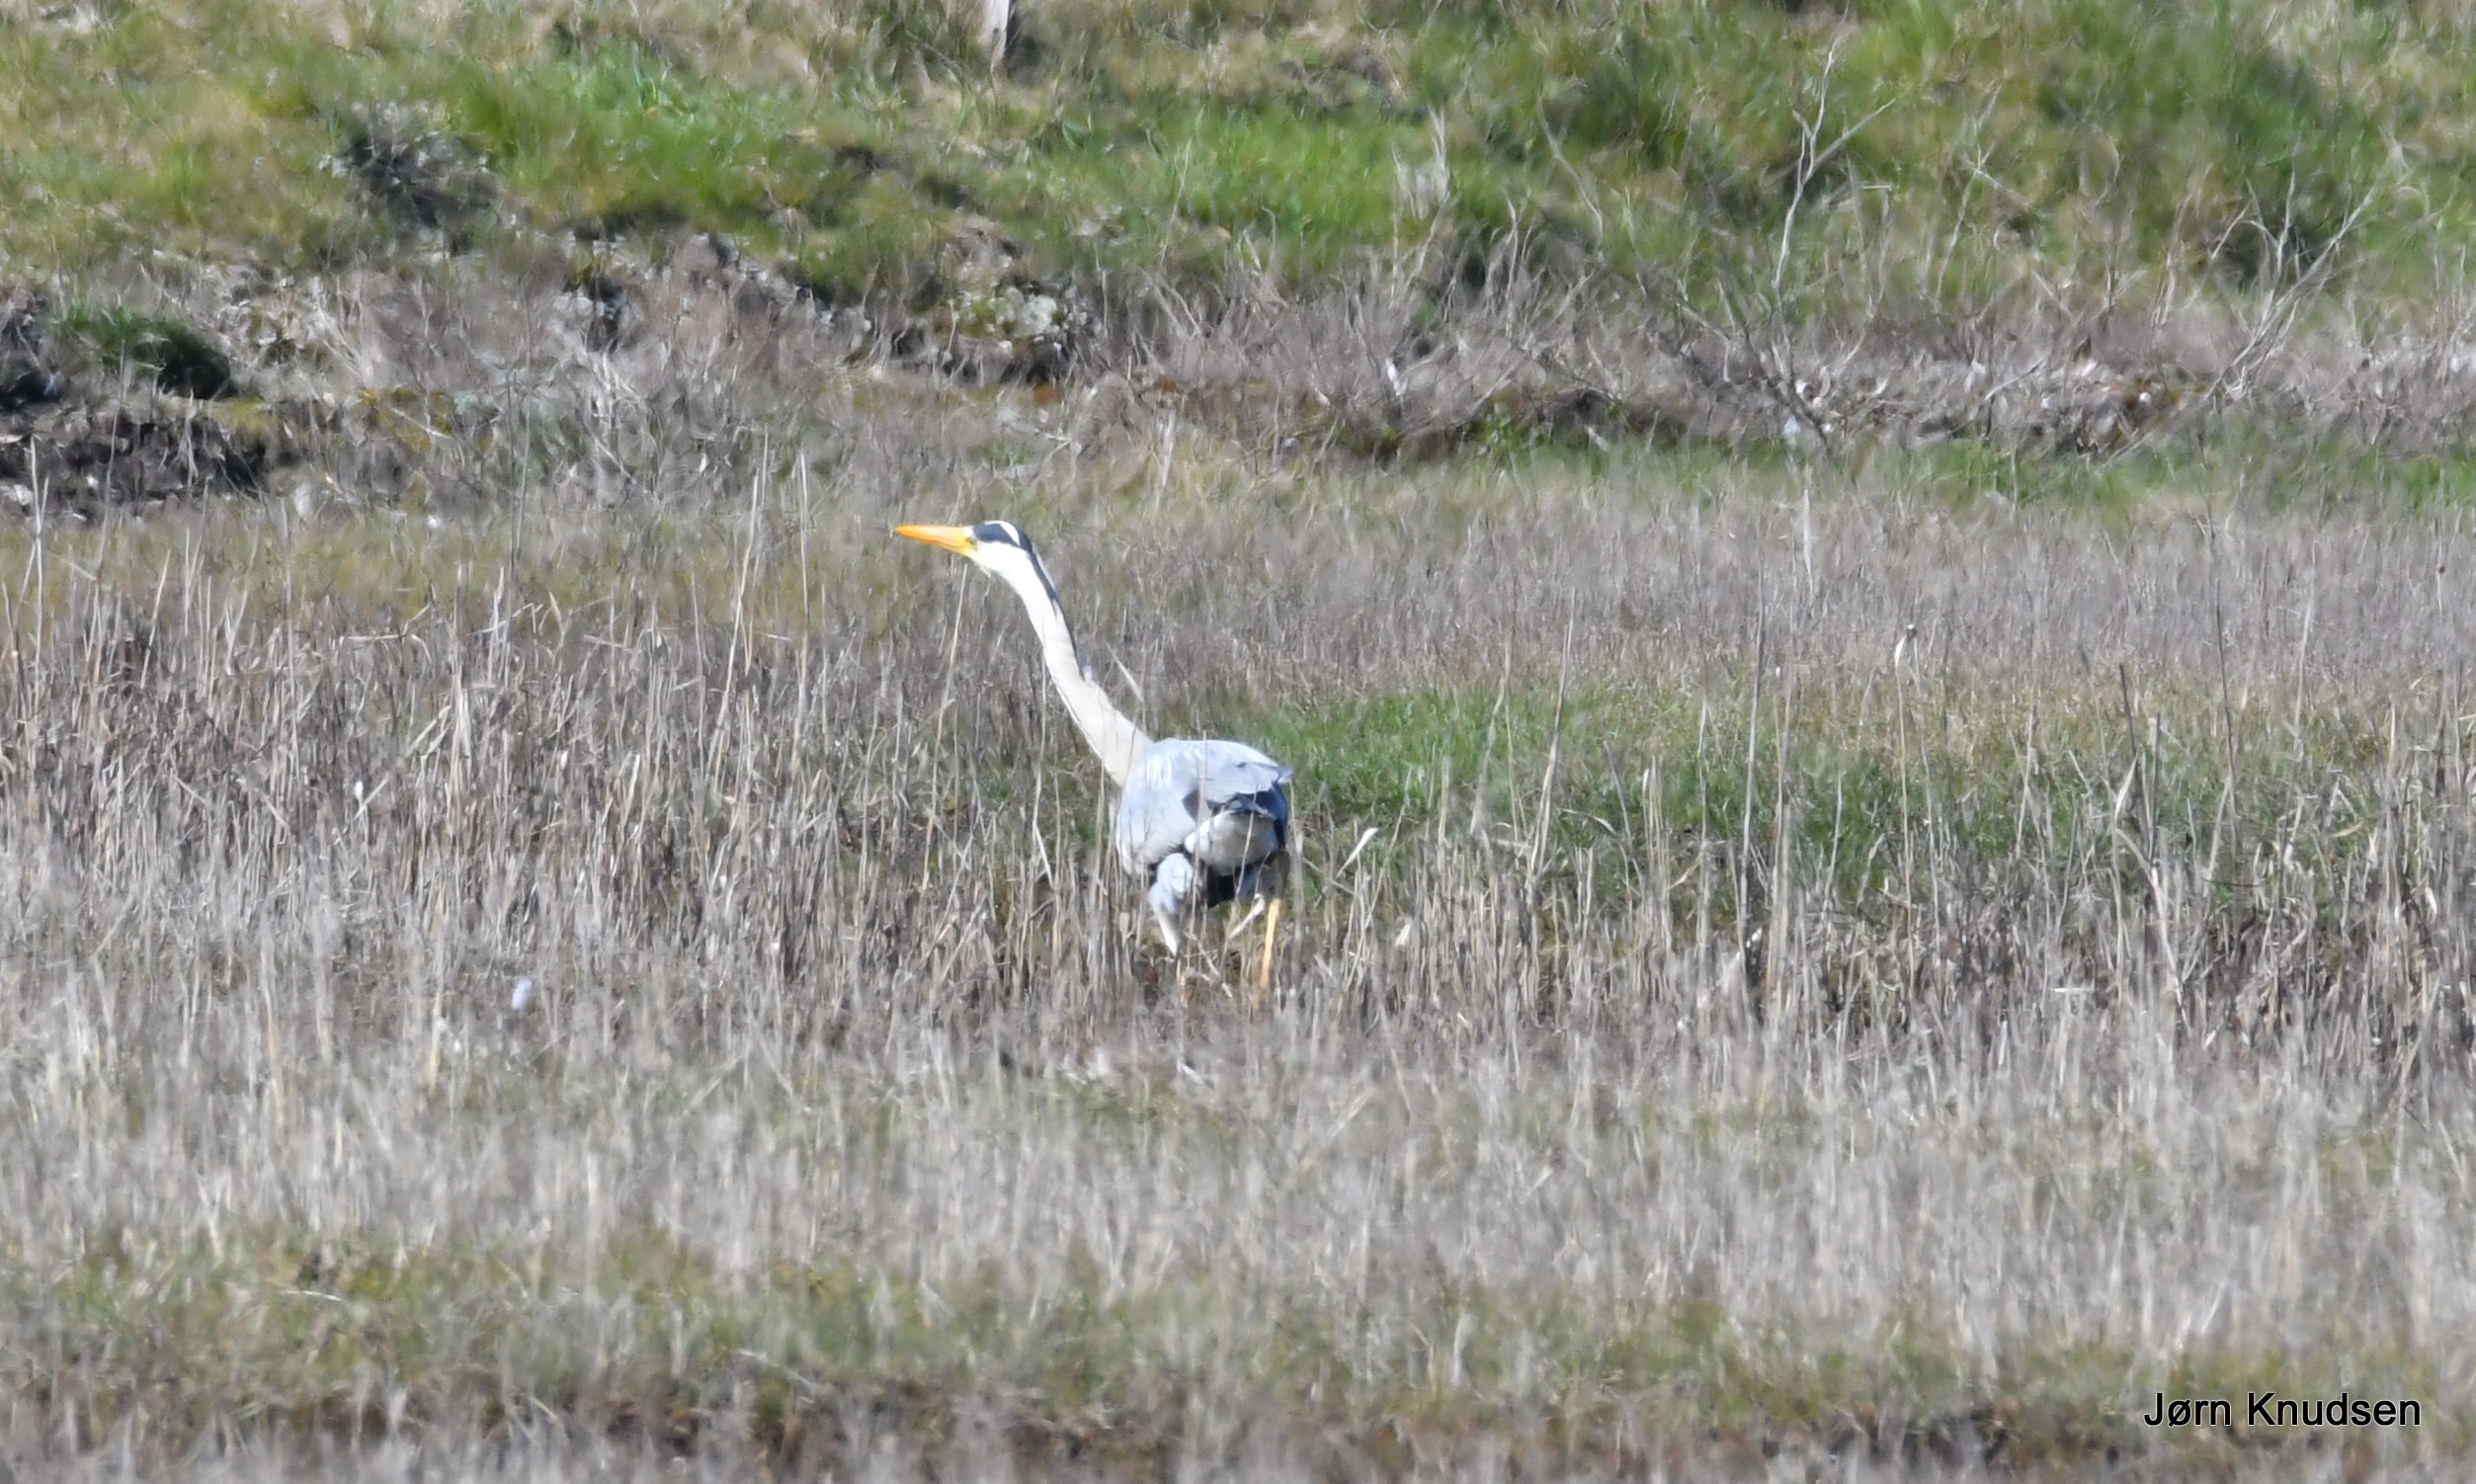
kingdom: Animalia
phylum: Chordata
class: Aves
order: Pelecaniformes
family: Ardeidae
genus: Ardea
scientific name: Ardea cinerea
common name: Fiskehejre
